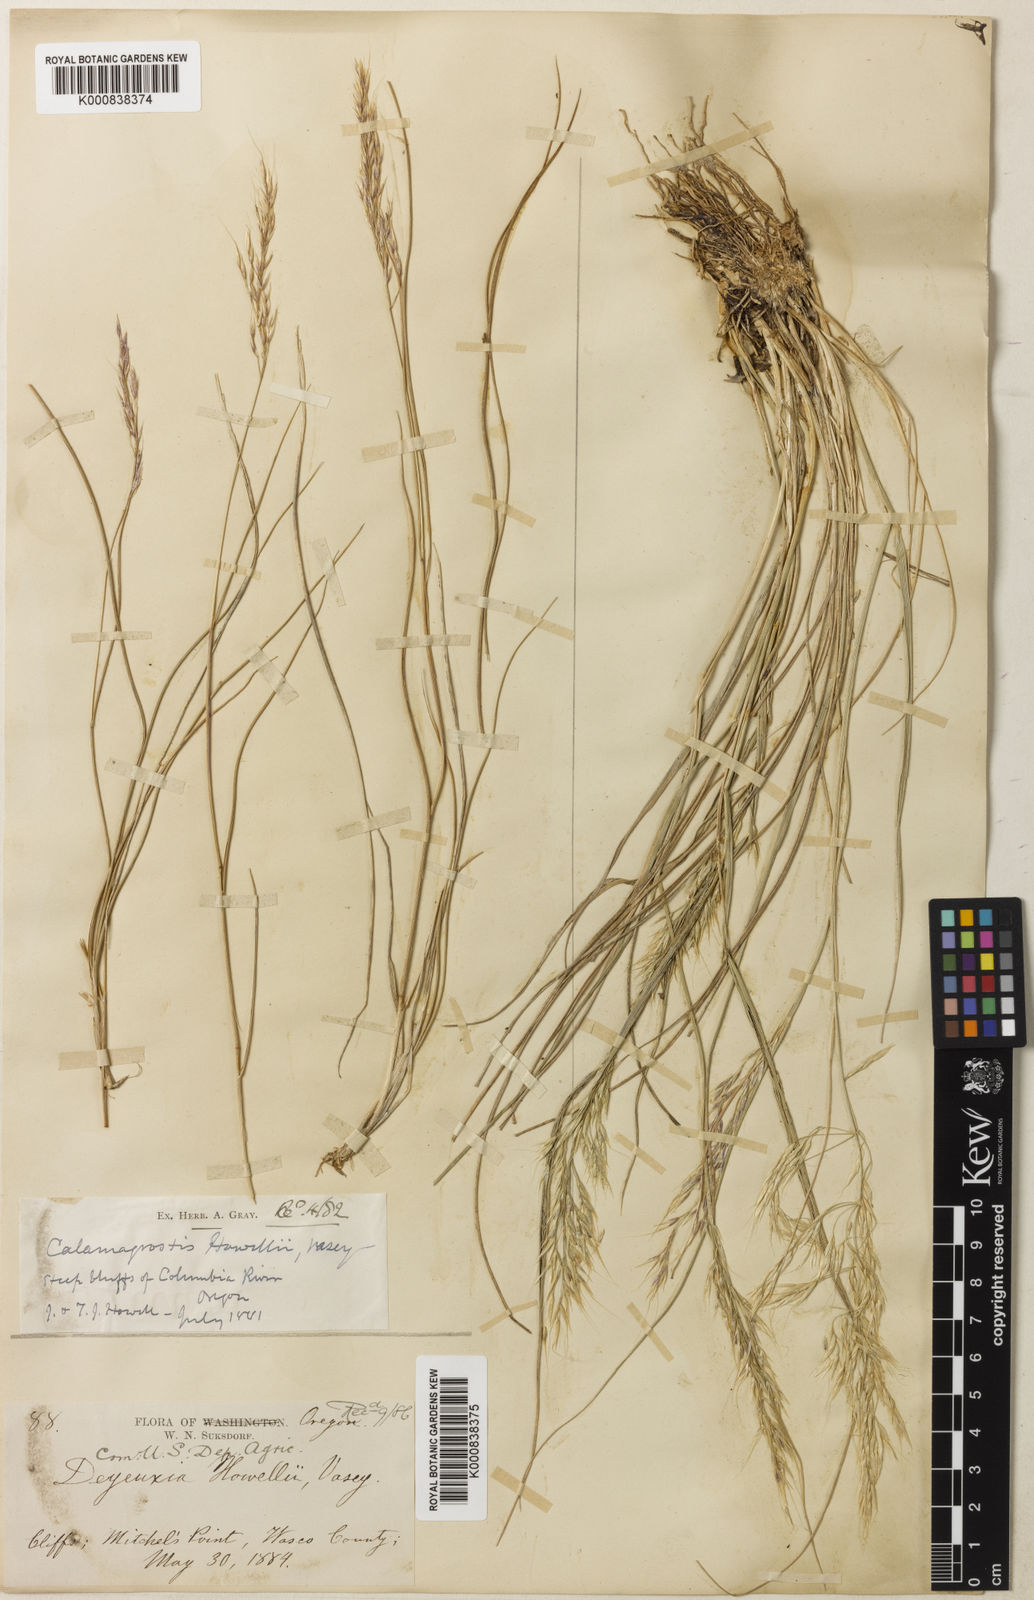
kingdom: Plantae
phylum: Tracheophyta
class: Liliopsida
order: Poales
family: Poaceae
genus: Calamagrostis
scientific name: Calamagrostis howellii
